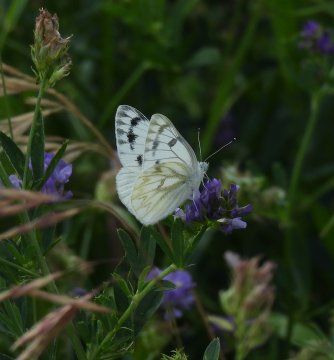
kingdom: Animalia
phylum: Arthropoda
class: Insecta
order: Lepidoptera
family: Pieridae
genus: Pontia
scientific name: Pontia occidentalis
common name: Western White
